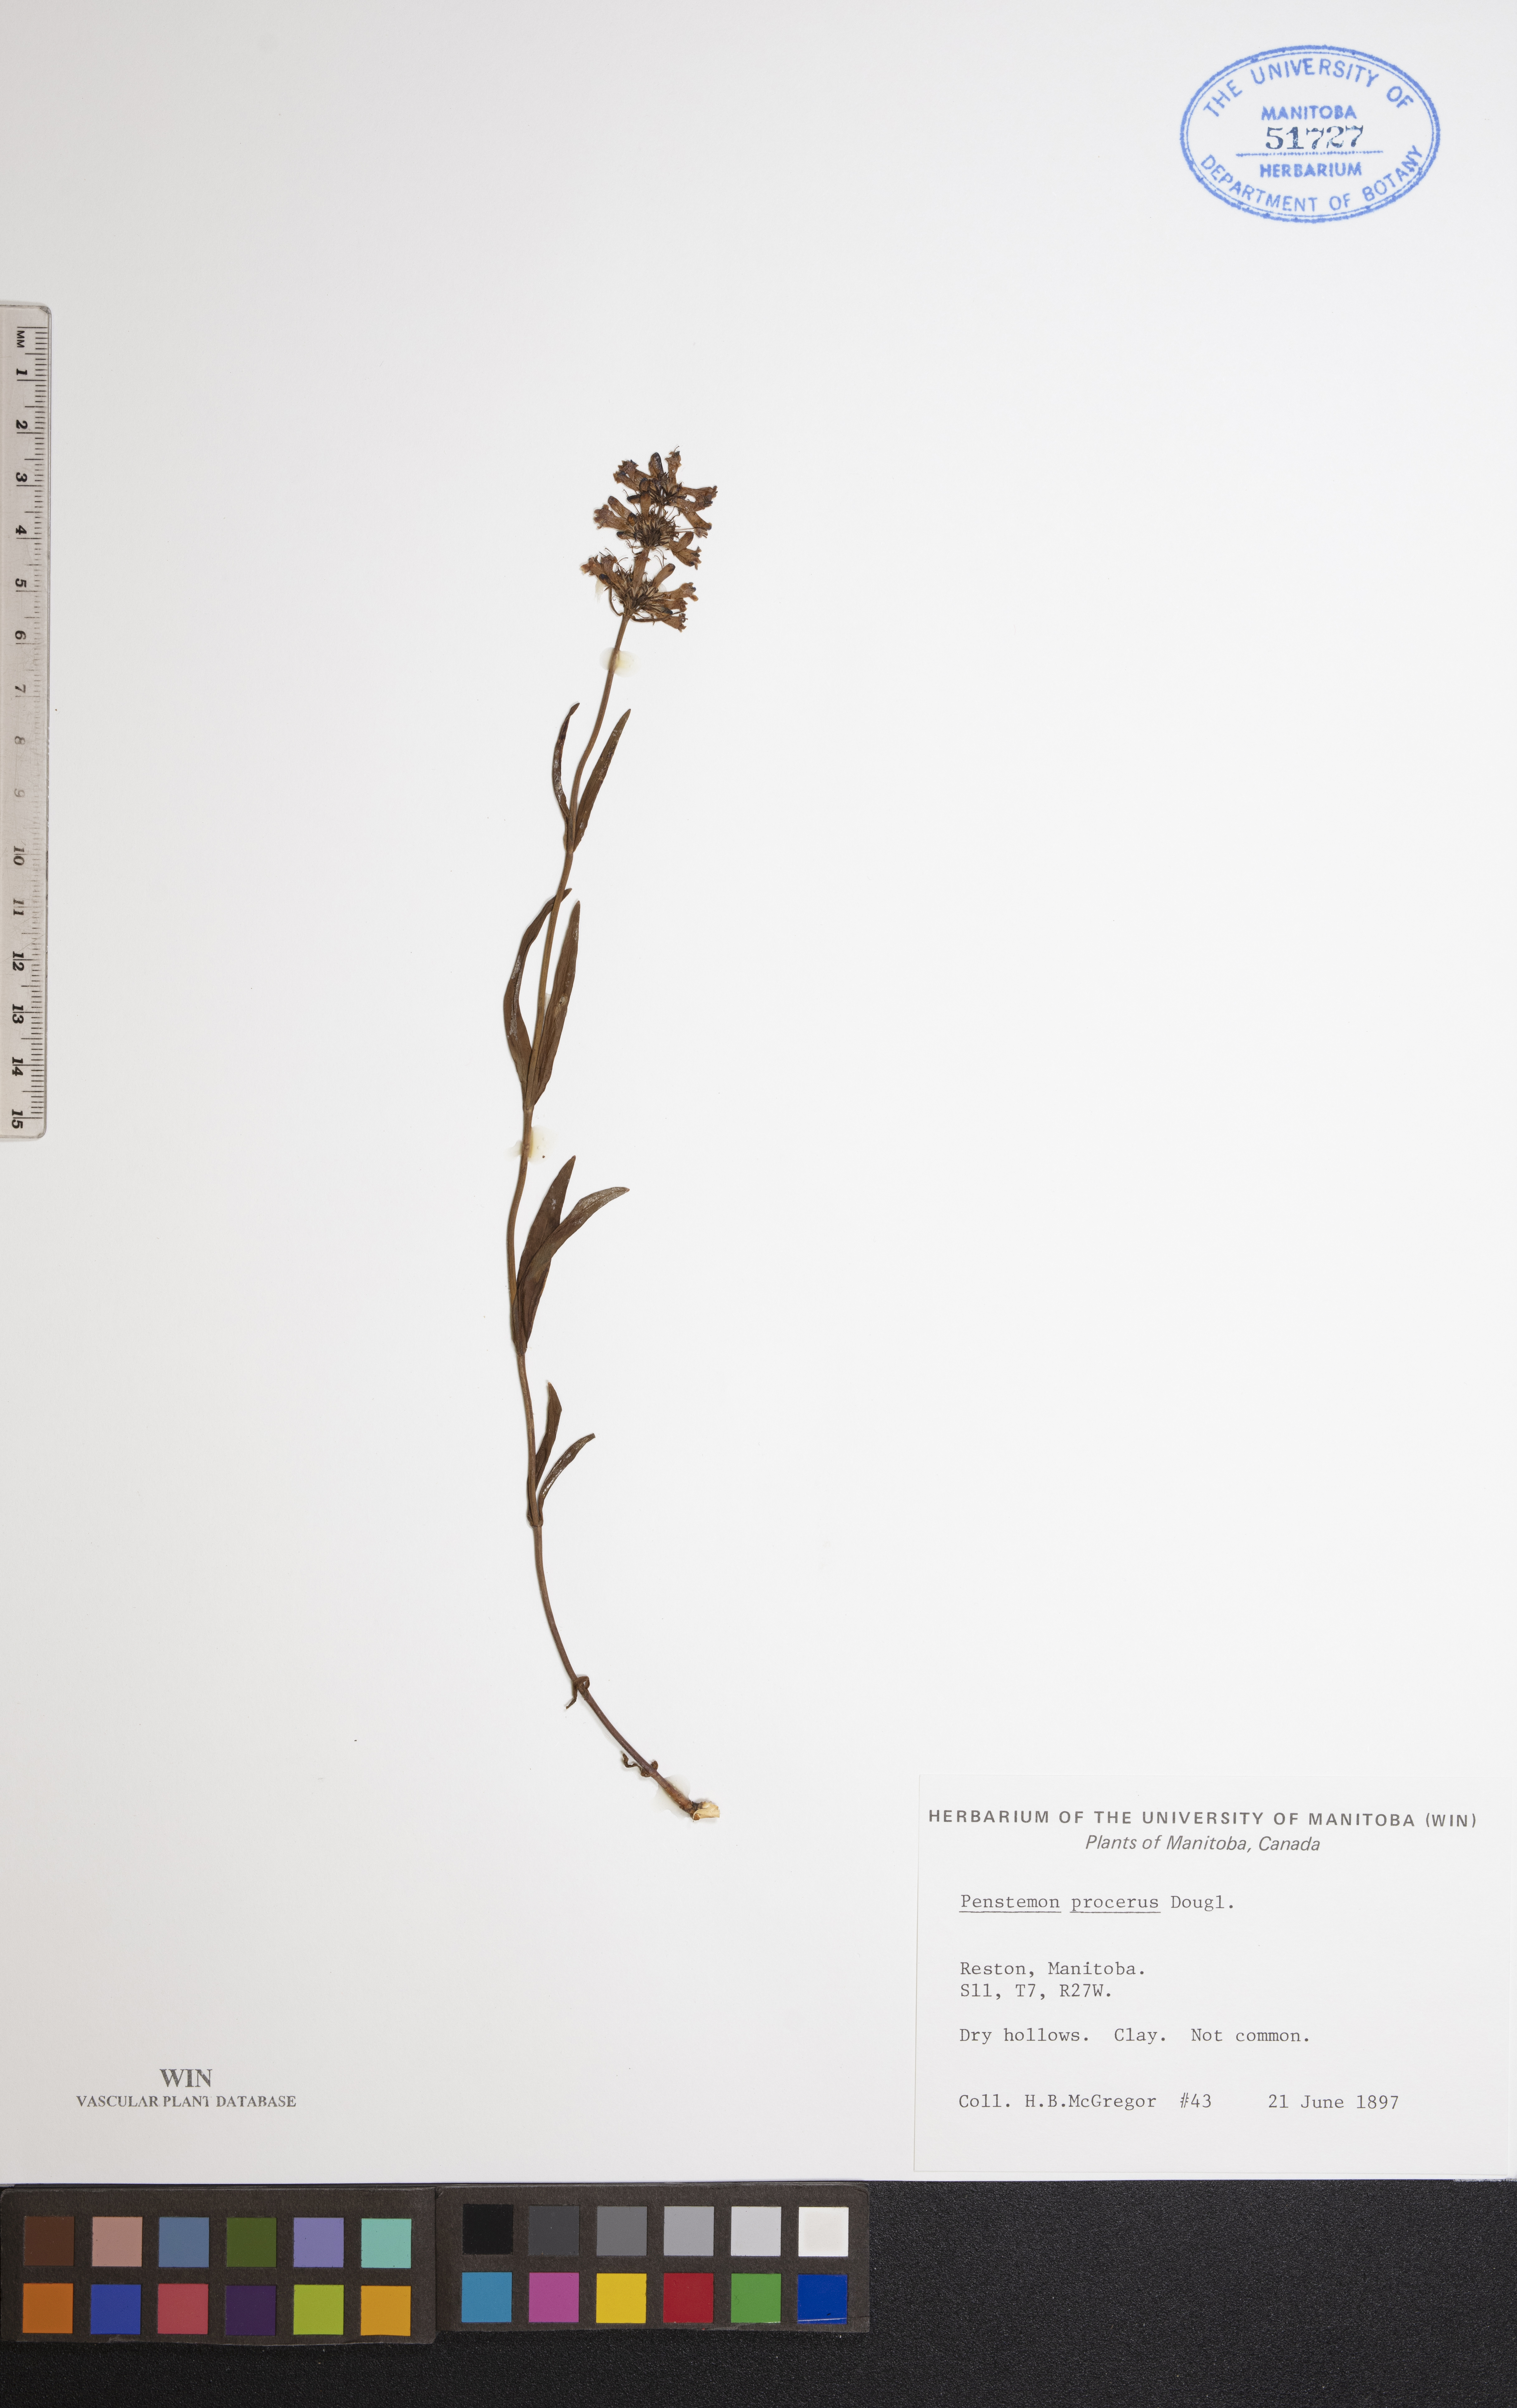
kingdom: Plantae
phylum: Tracheophyta
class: Magnoliopsida
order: Lamiales
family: Plantaginaceae
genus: Penstemon
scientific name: Penstemon procerus
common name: Small-flower penstemon
